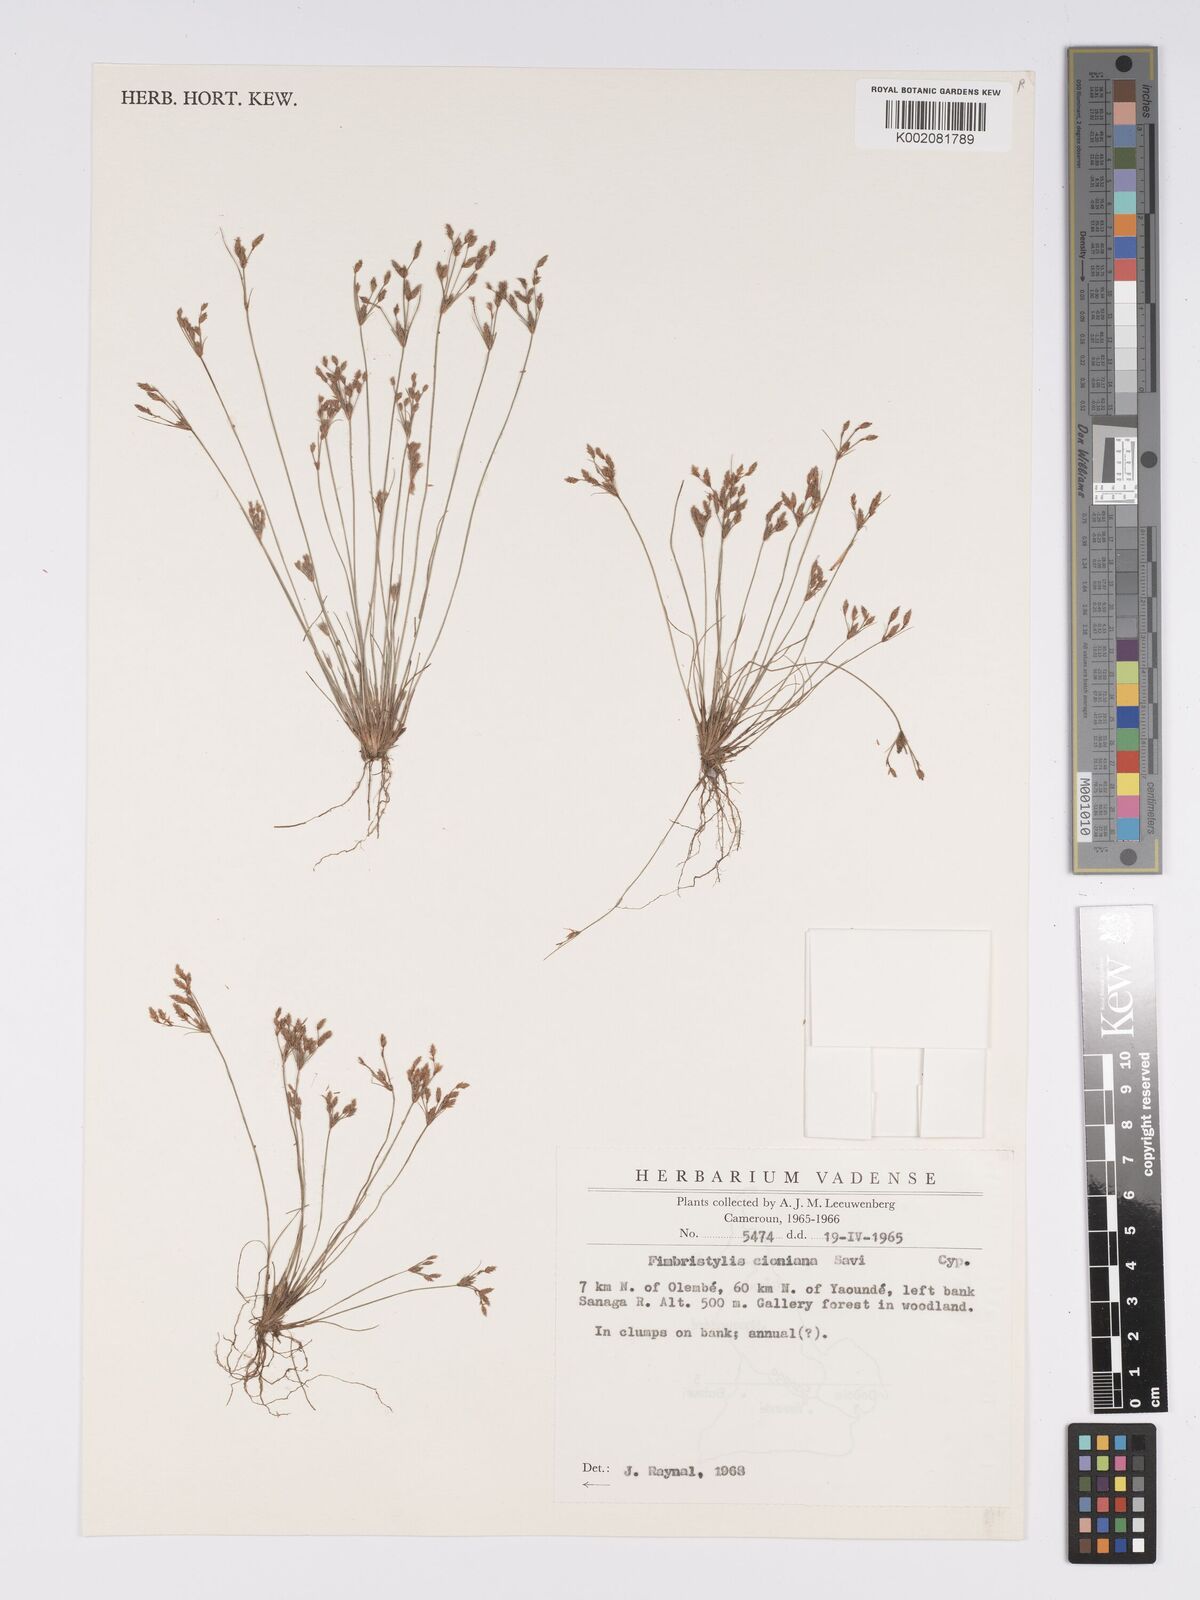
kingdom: Plantae
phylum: Tracheophyta
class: Liliopsida
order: Poales
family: Cyperaceae
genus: Bulbostylis
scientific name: Bulbostylis cioniana
